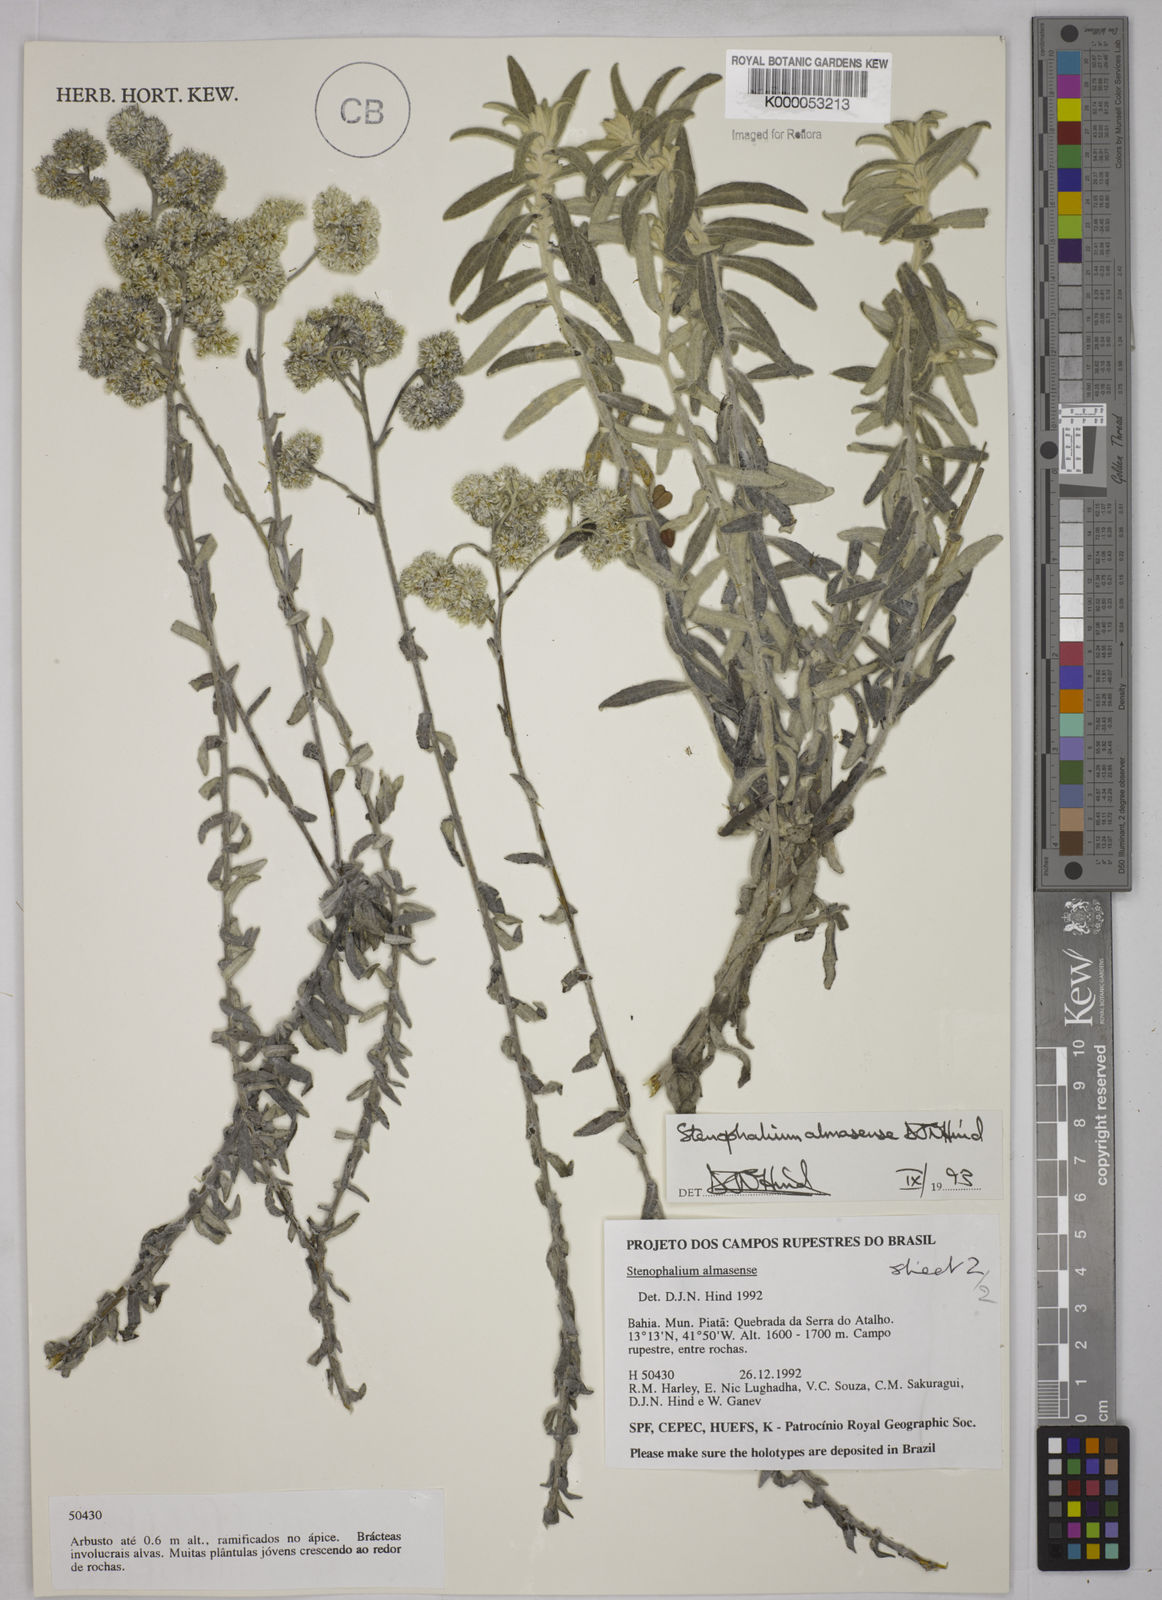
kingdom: Plantae
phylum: Tracheophyta
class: Magnoliopsida
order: Asterales
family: Asteraceae
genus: Achyrocline
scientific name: Achyrocline eriodes
